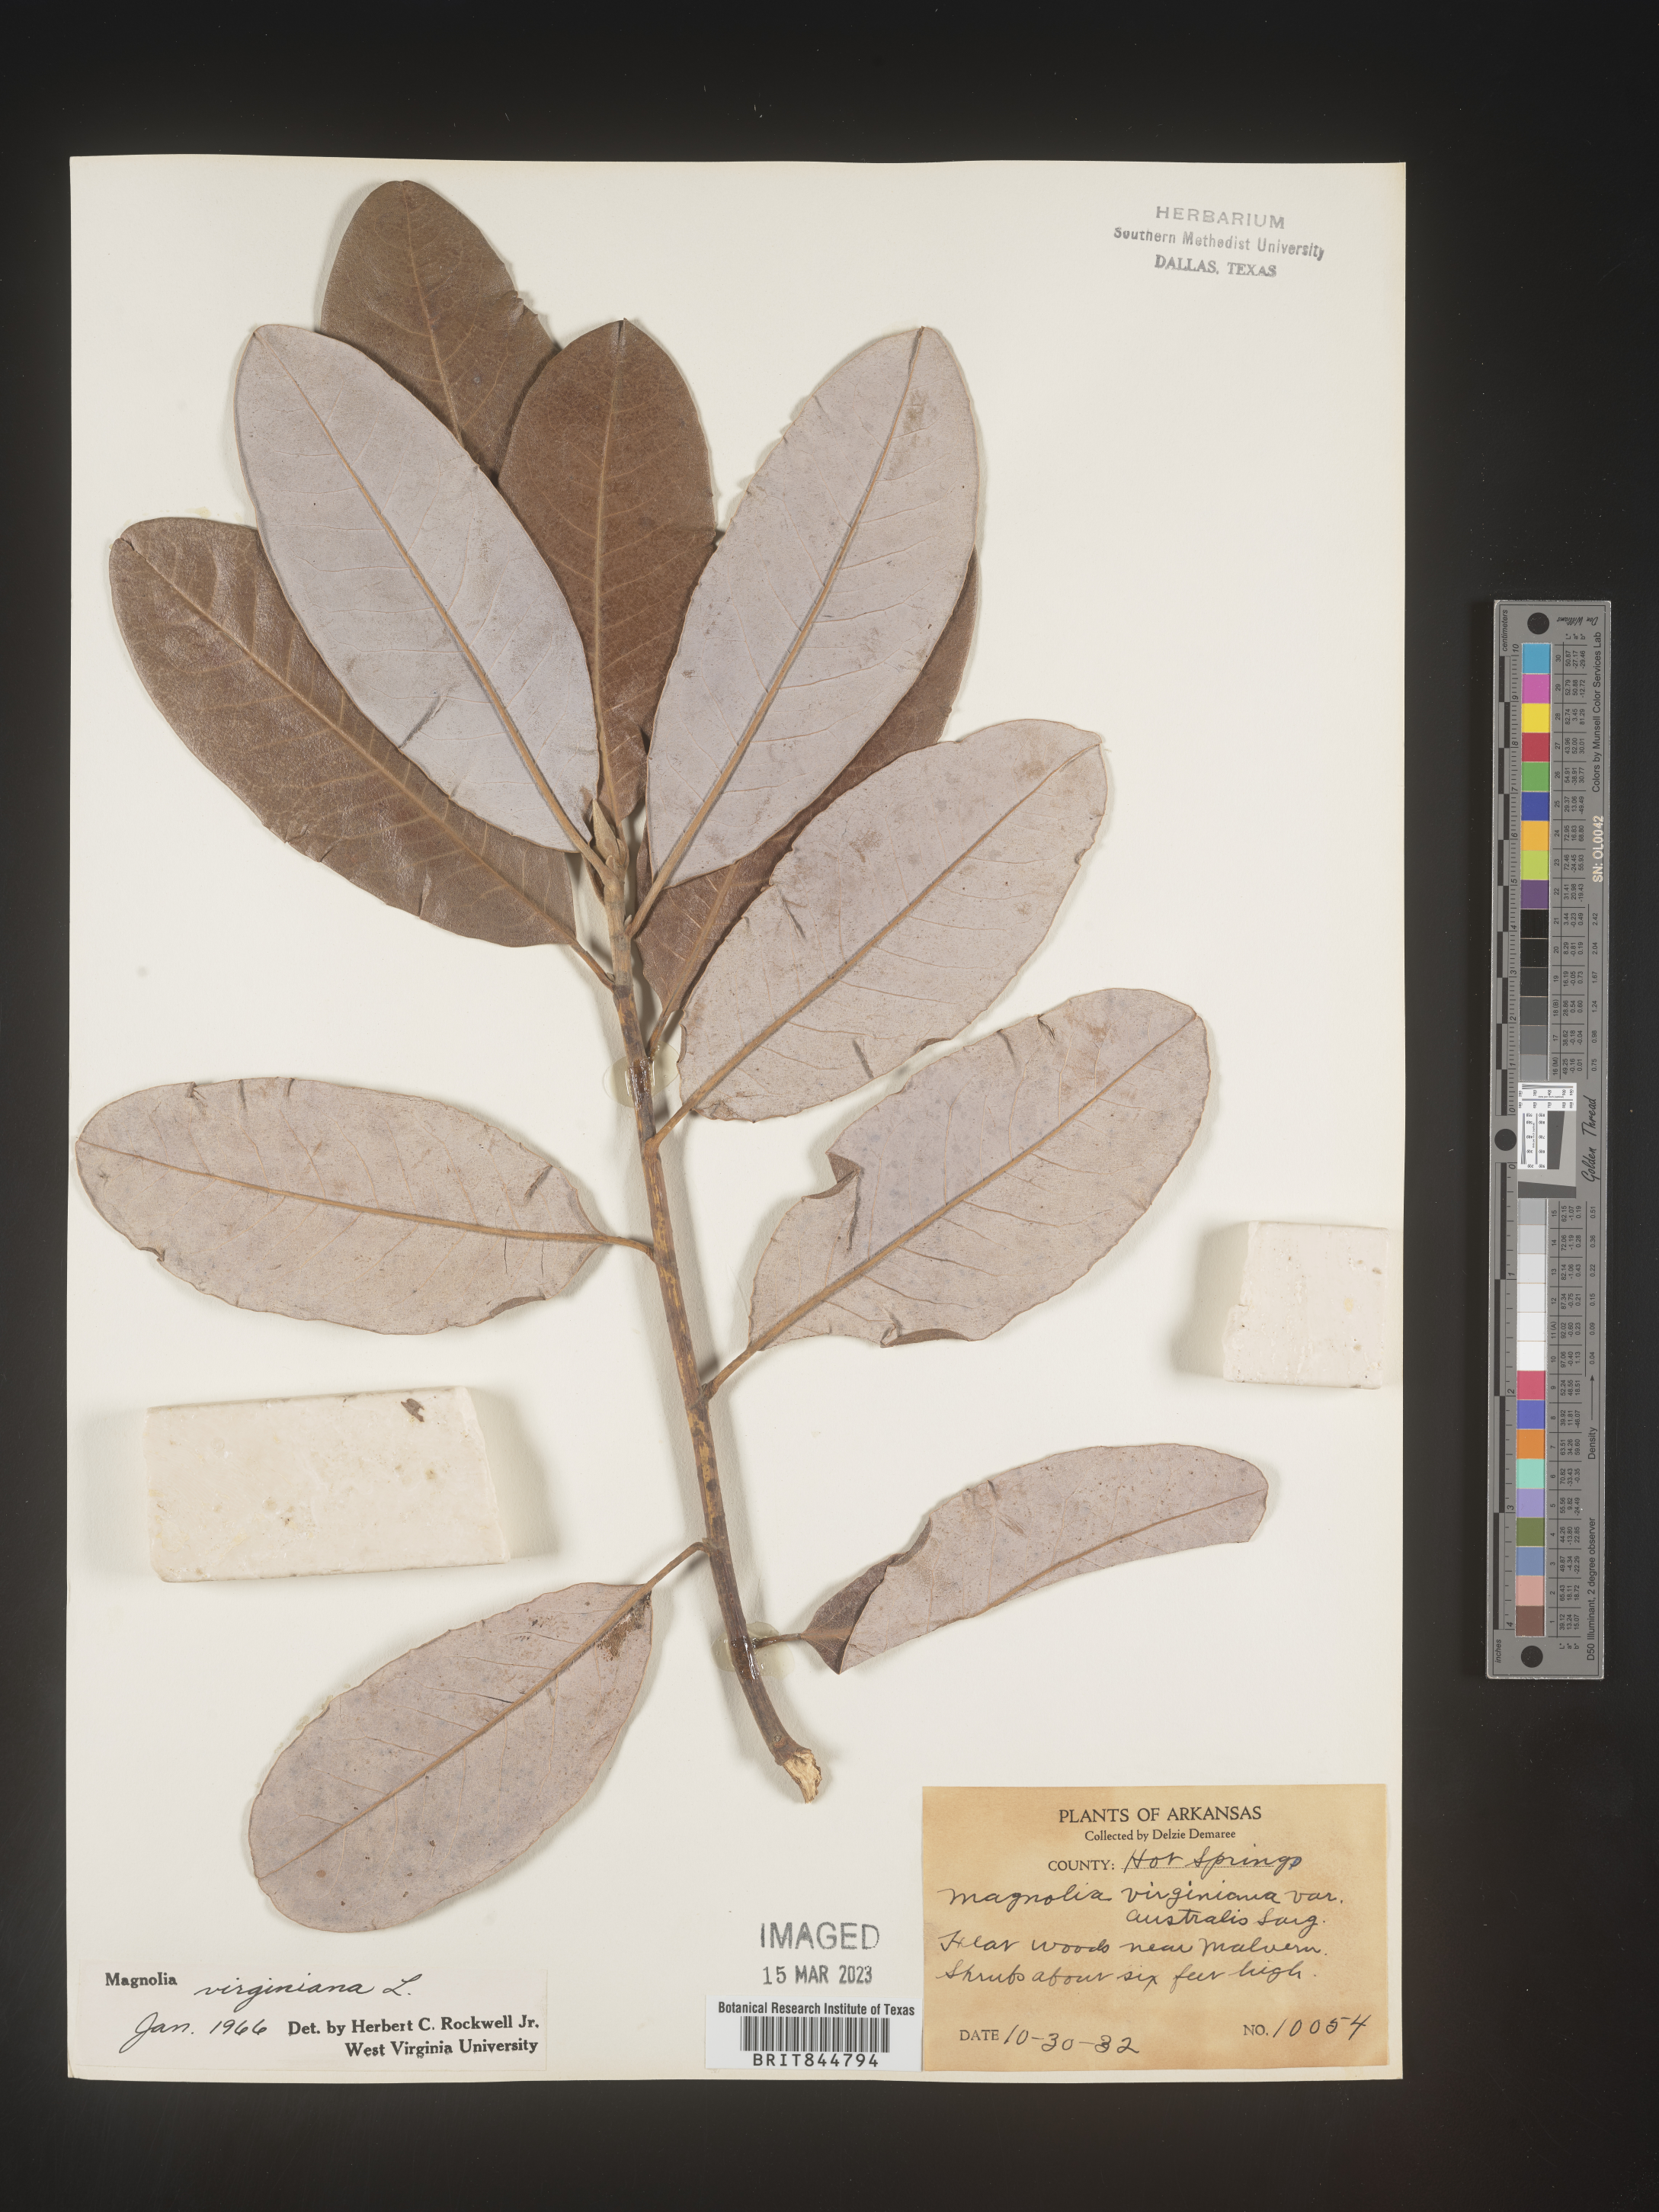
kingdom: Plantae
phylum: Tracheophyta
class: Magnoliopsida
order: Magnoliales
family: Magnoliaceae
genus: Magnolia
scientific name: Magnolia virginiana
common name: Swamp bay
